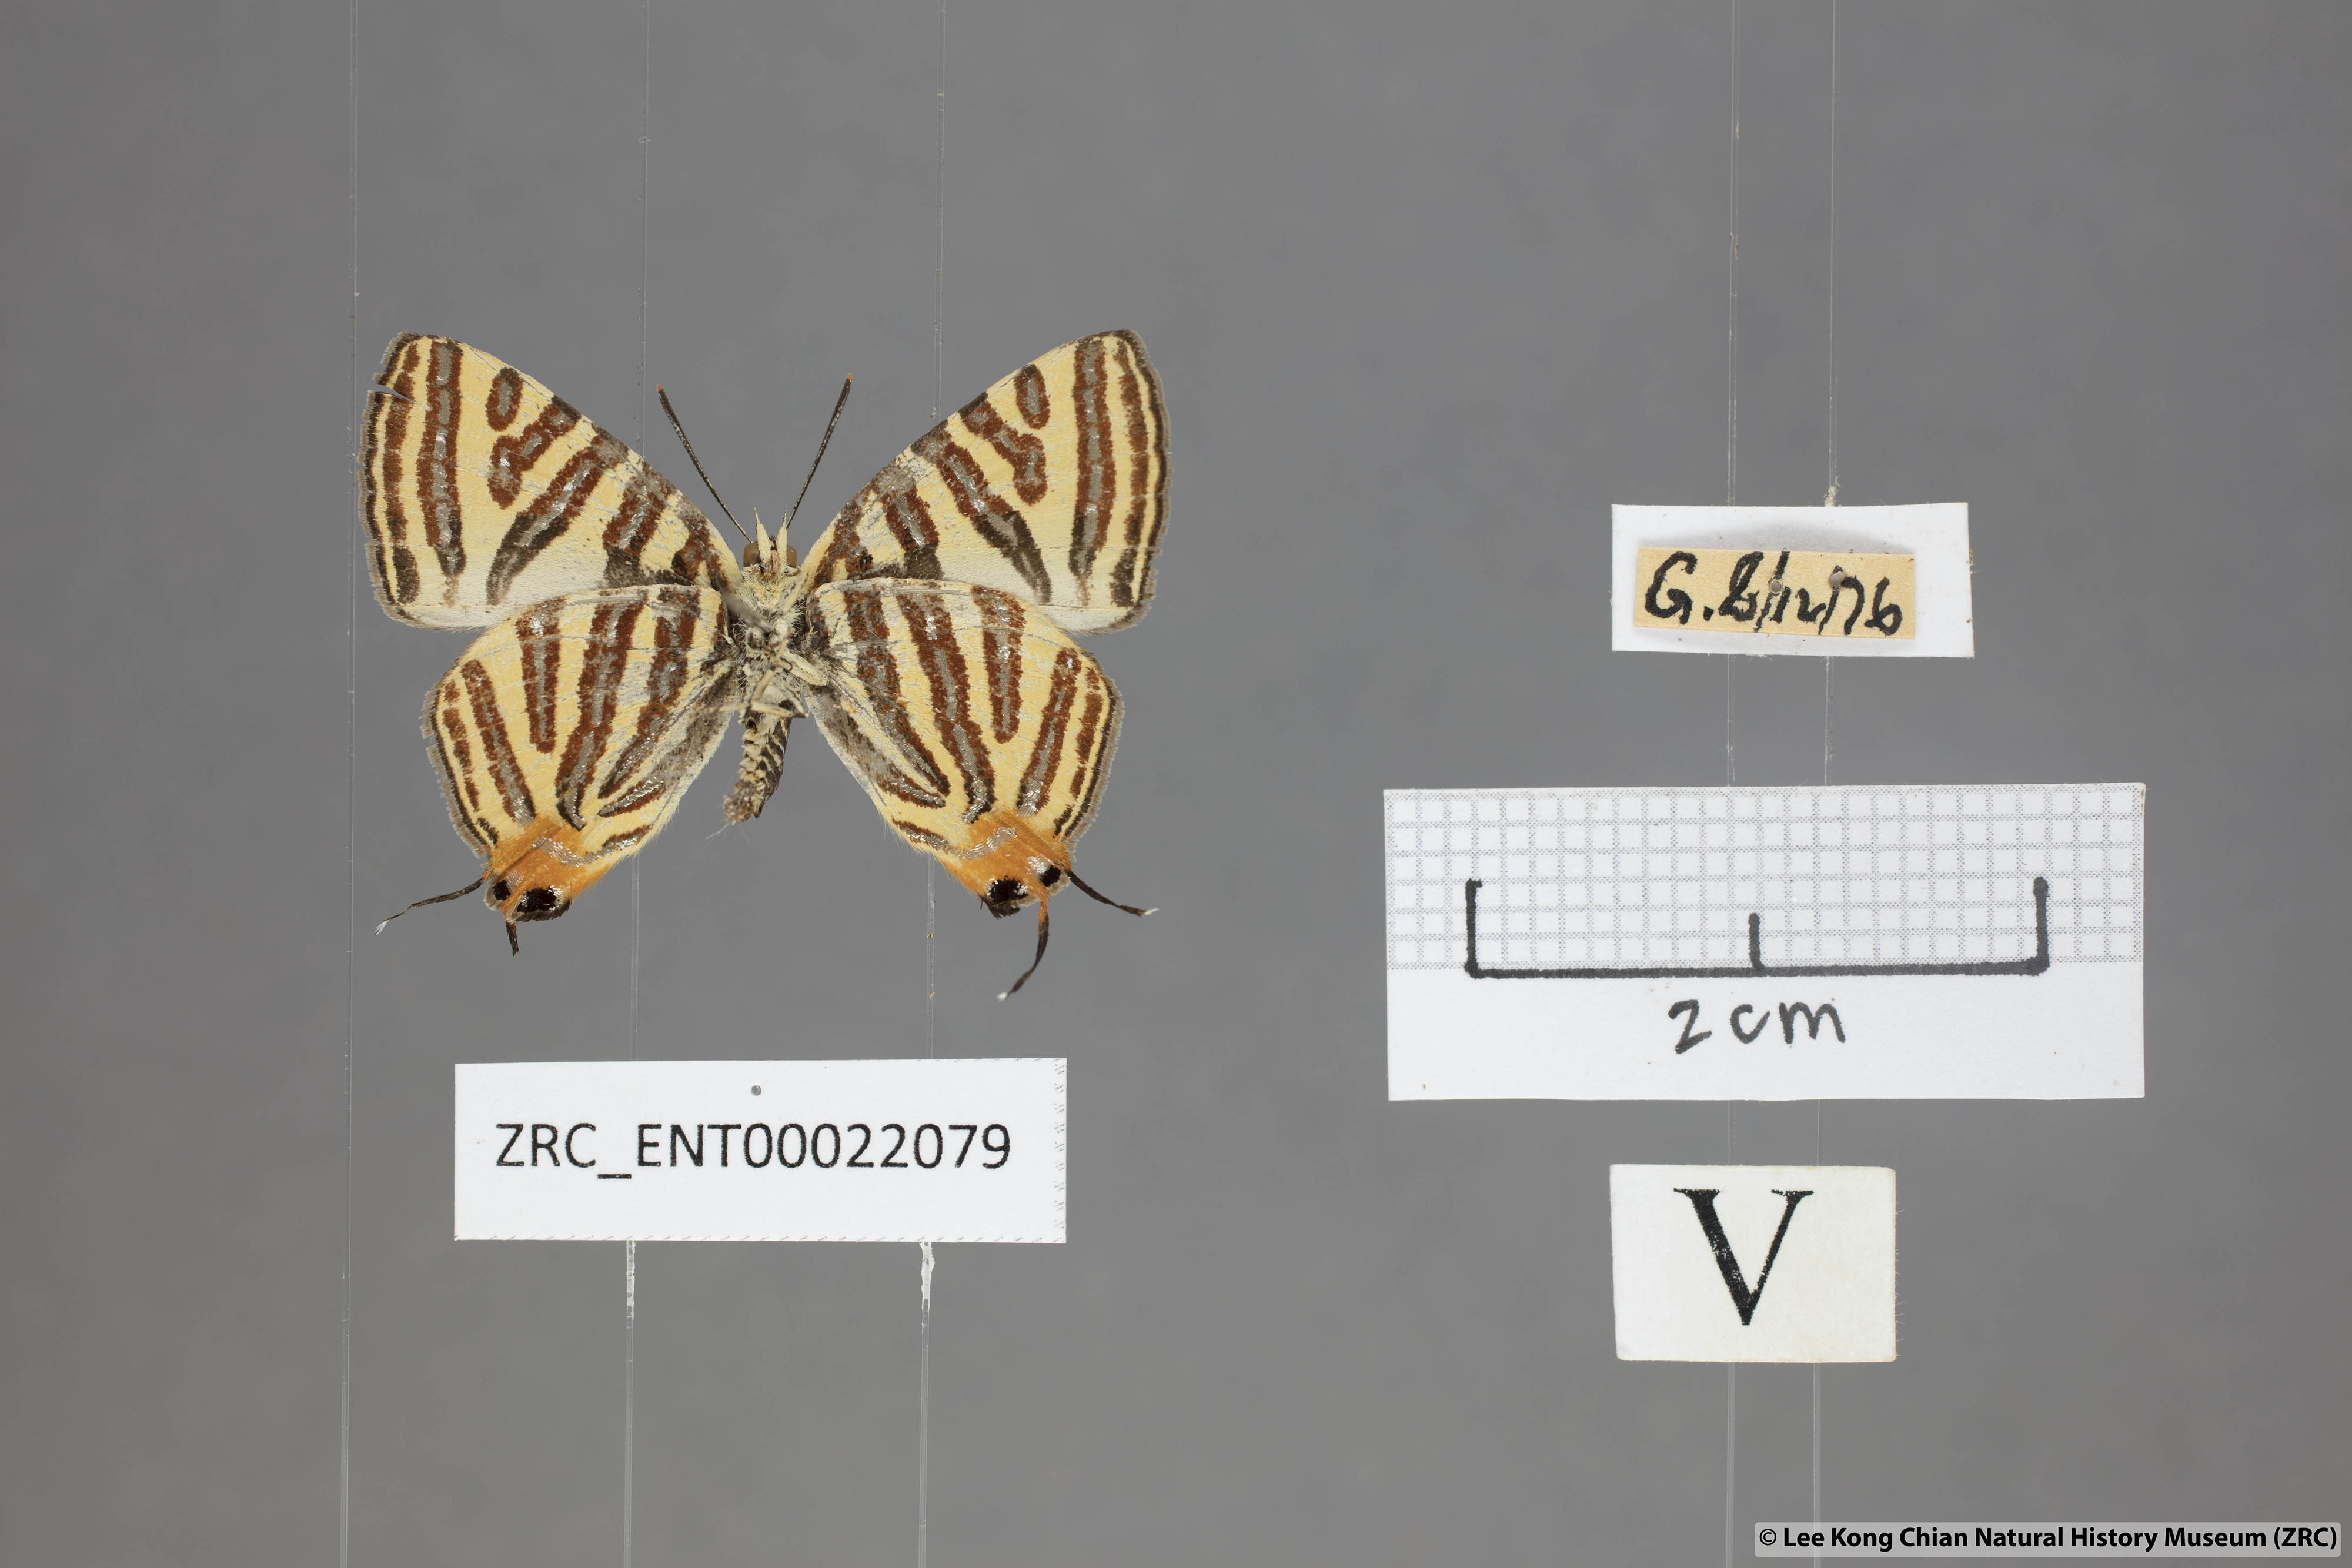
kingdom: Animalia
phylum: Arthropoda
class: Insecta
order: Lepidoptera
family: Lycaenidae
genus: Spindasis
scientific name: Spindasis lohita
